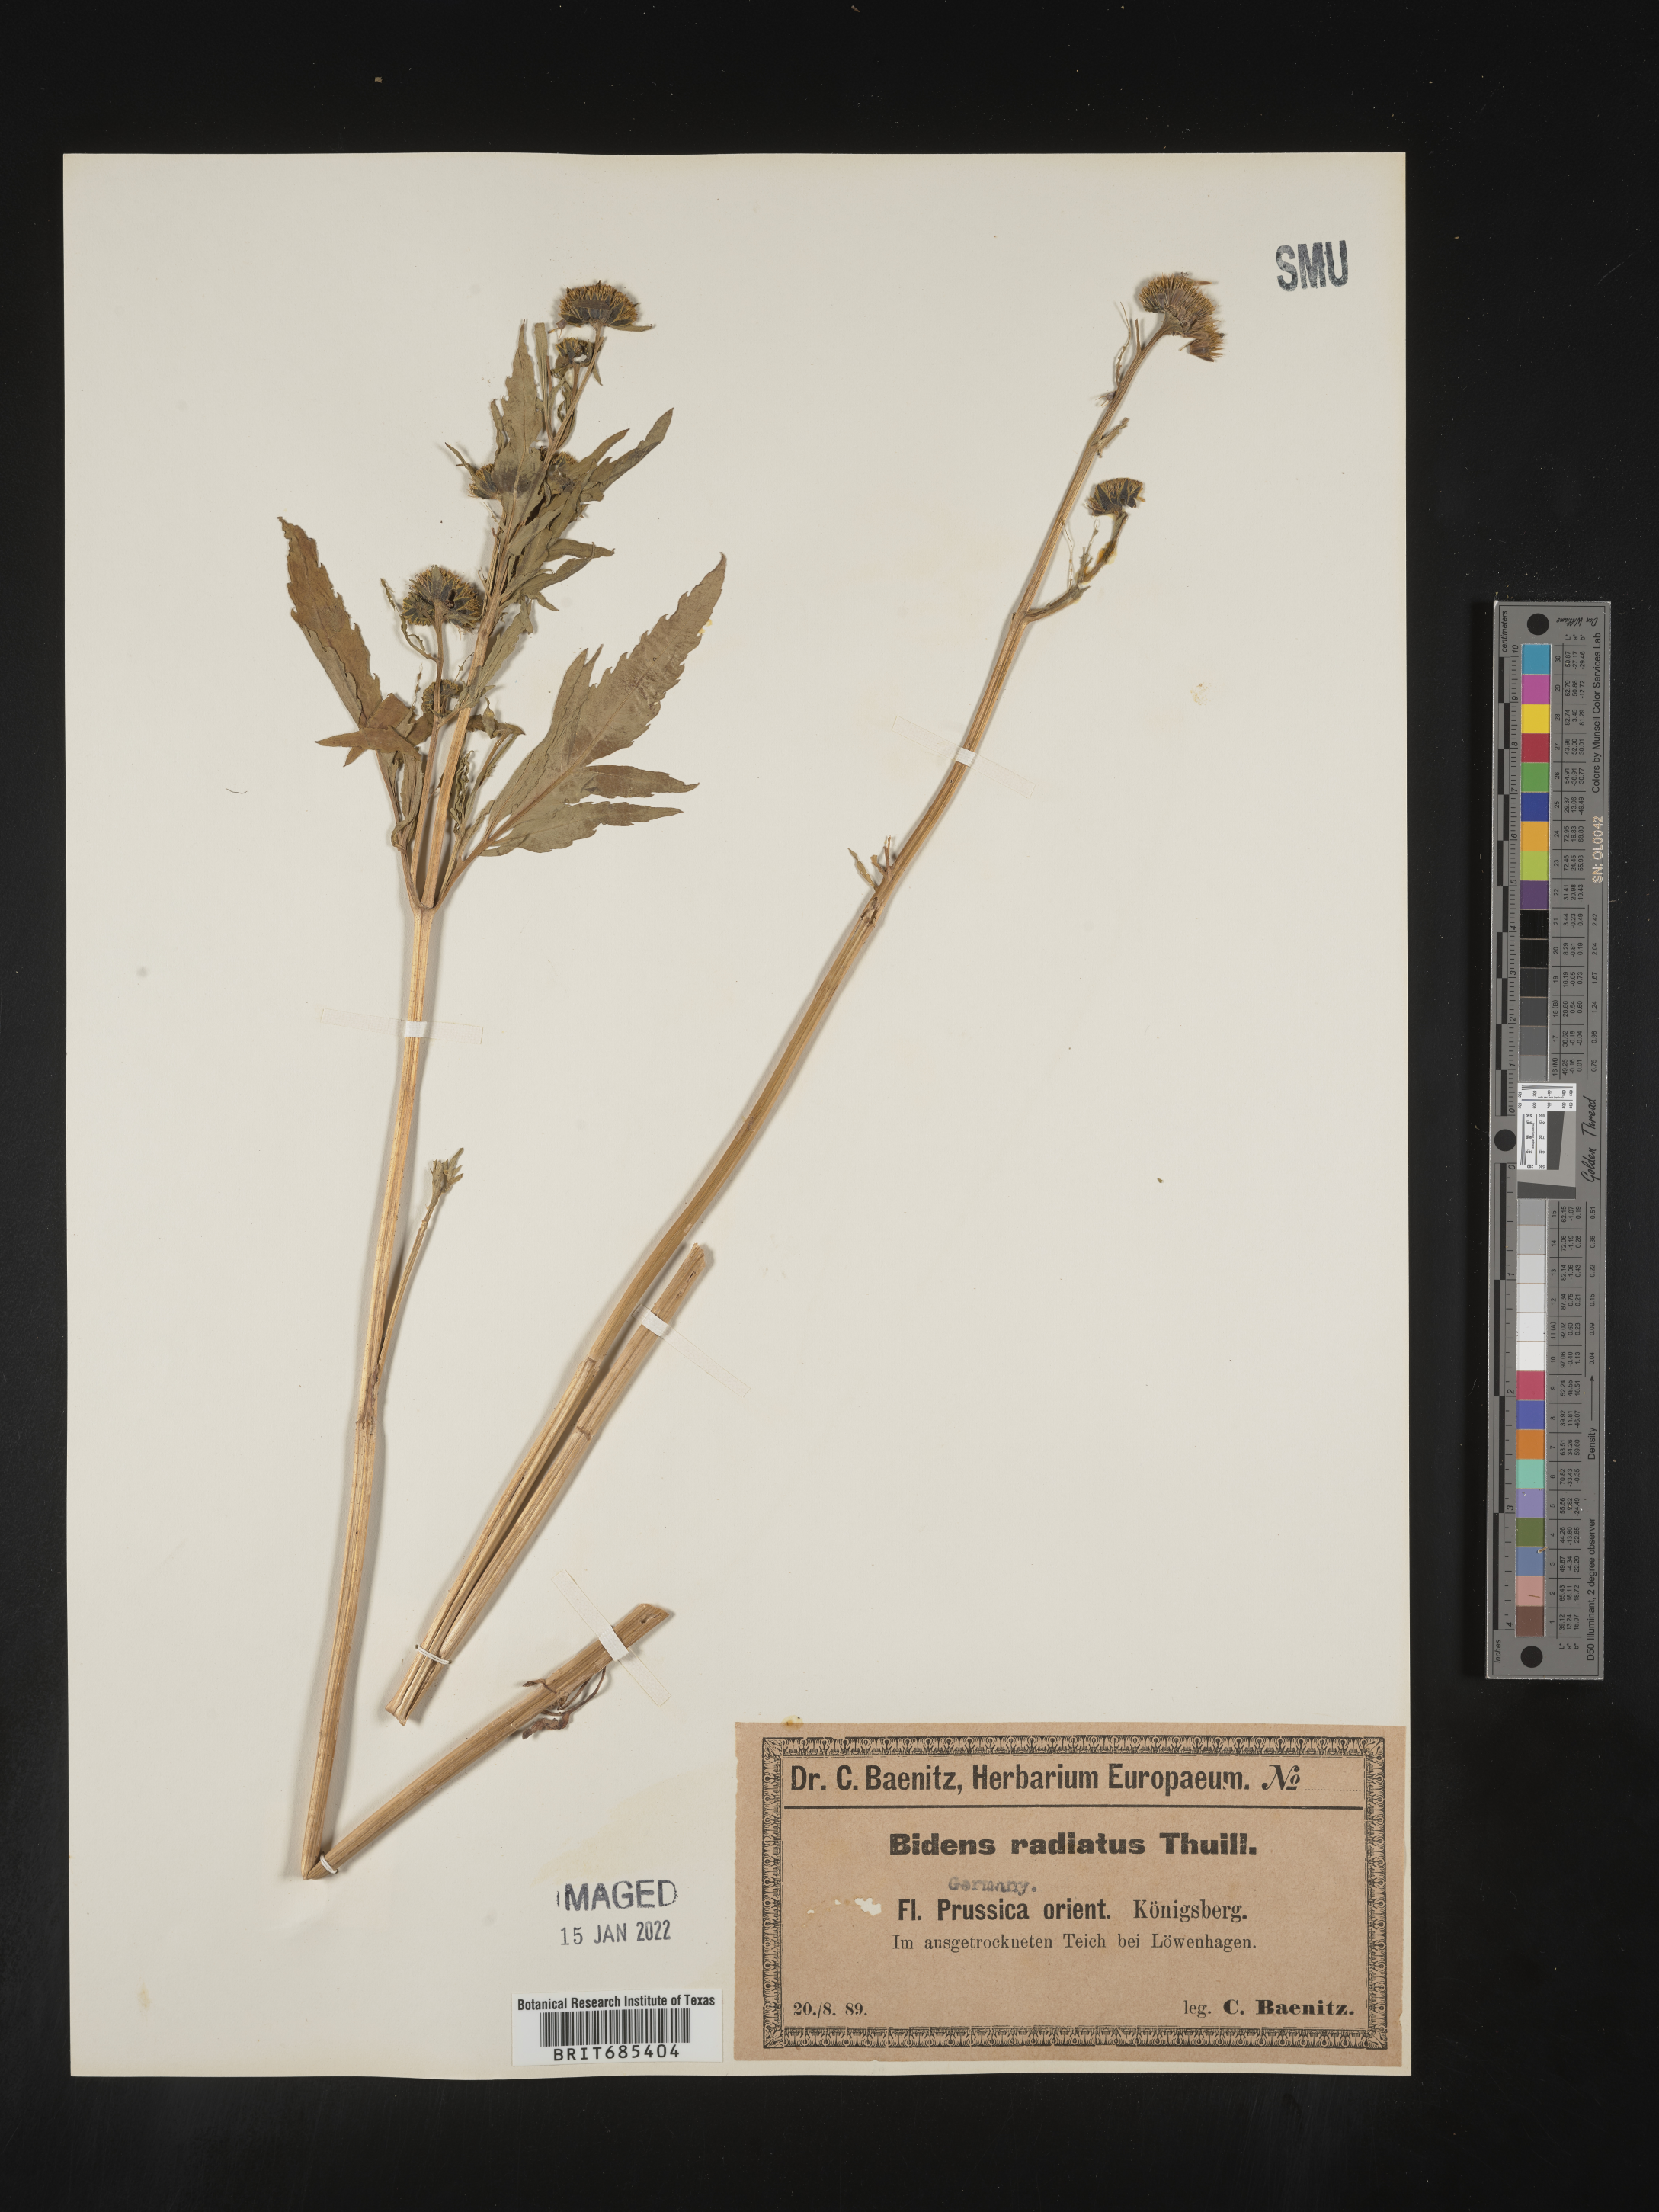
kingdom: Plantae
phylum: Tracheophyta
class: Magnoliopsida
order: Asterales
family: Asteraceae
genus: Bidens
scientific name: Bidens
